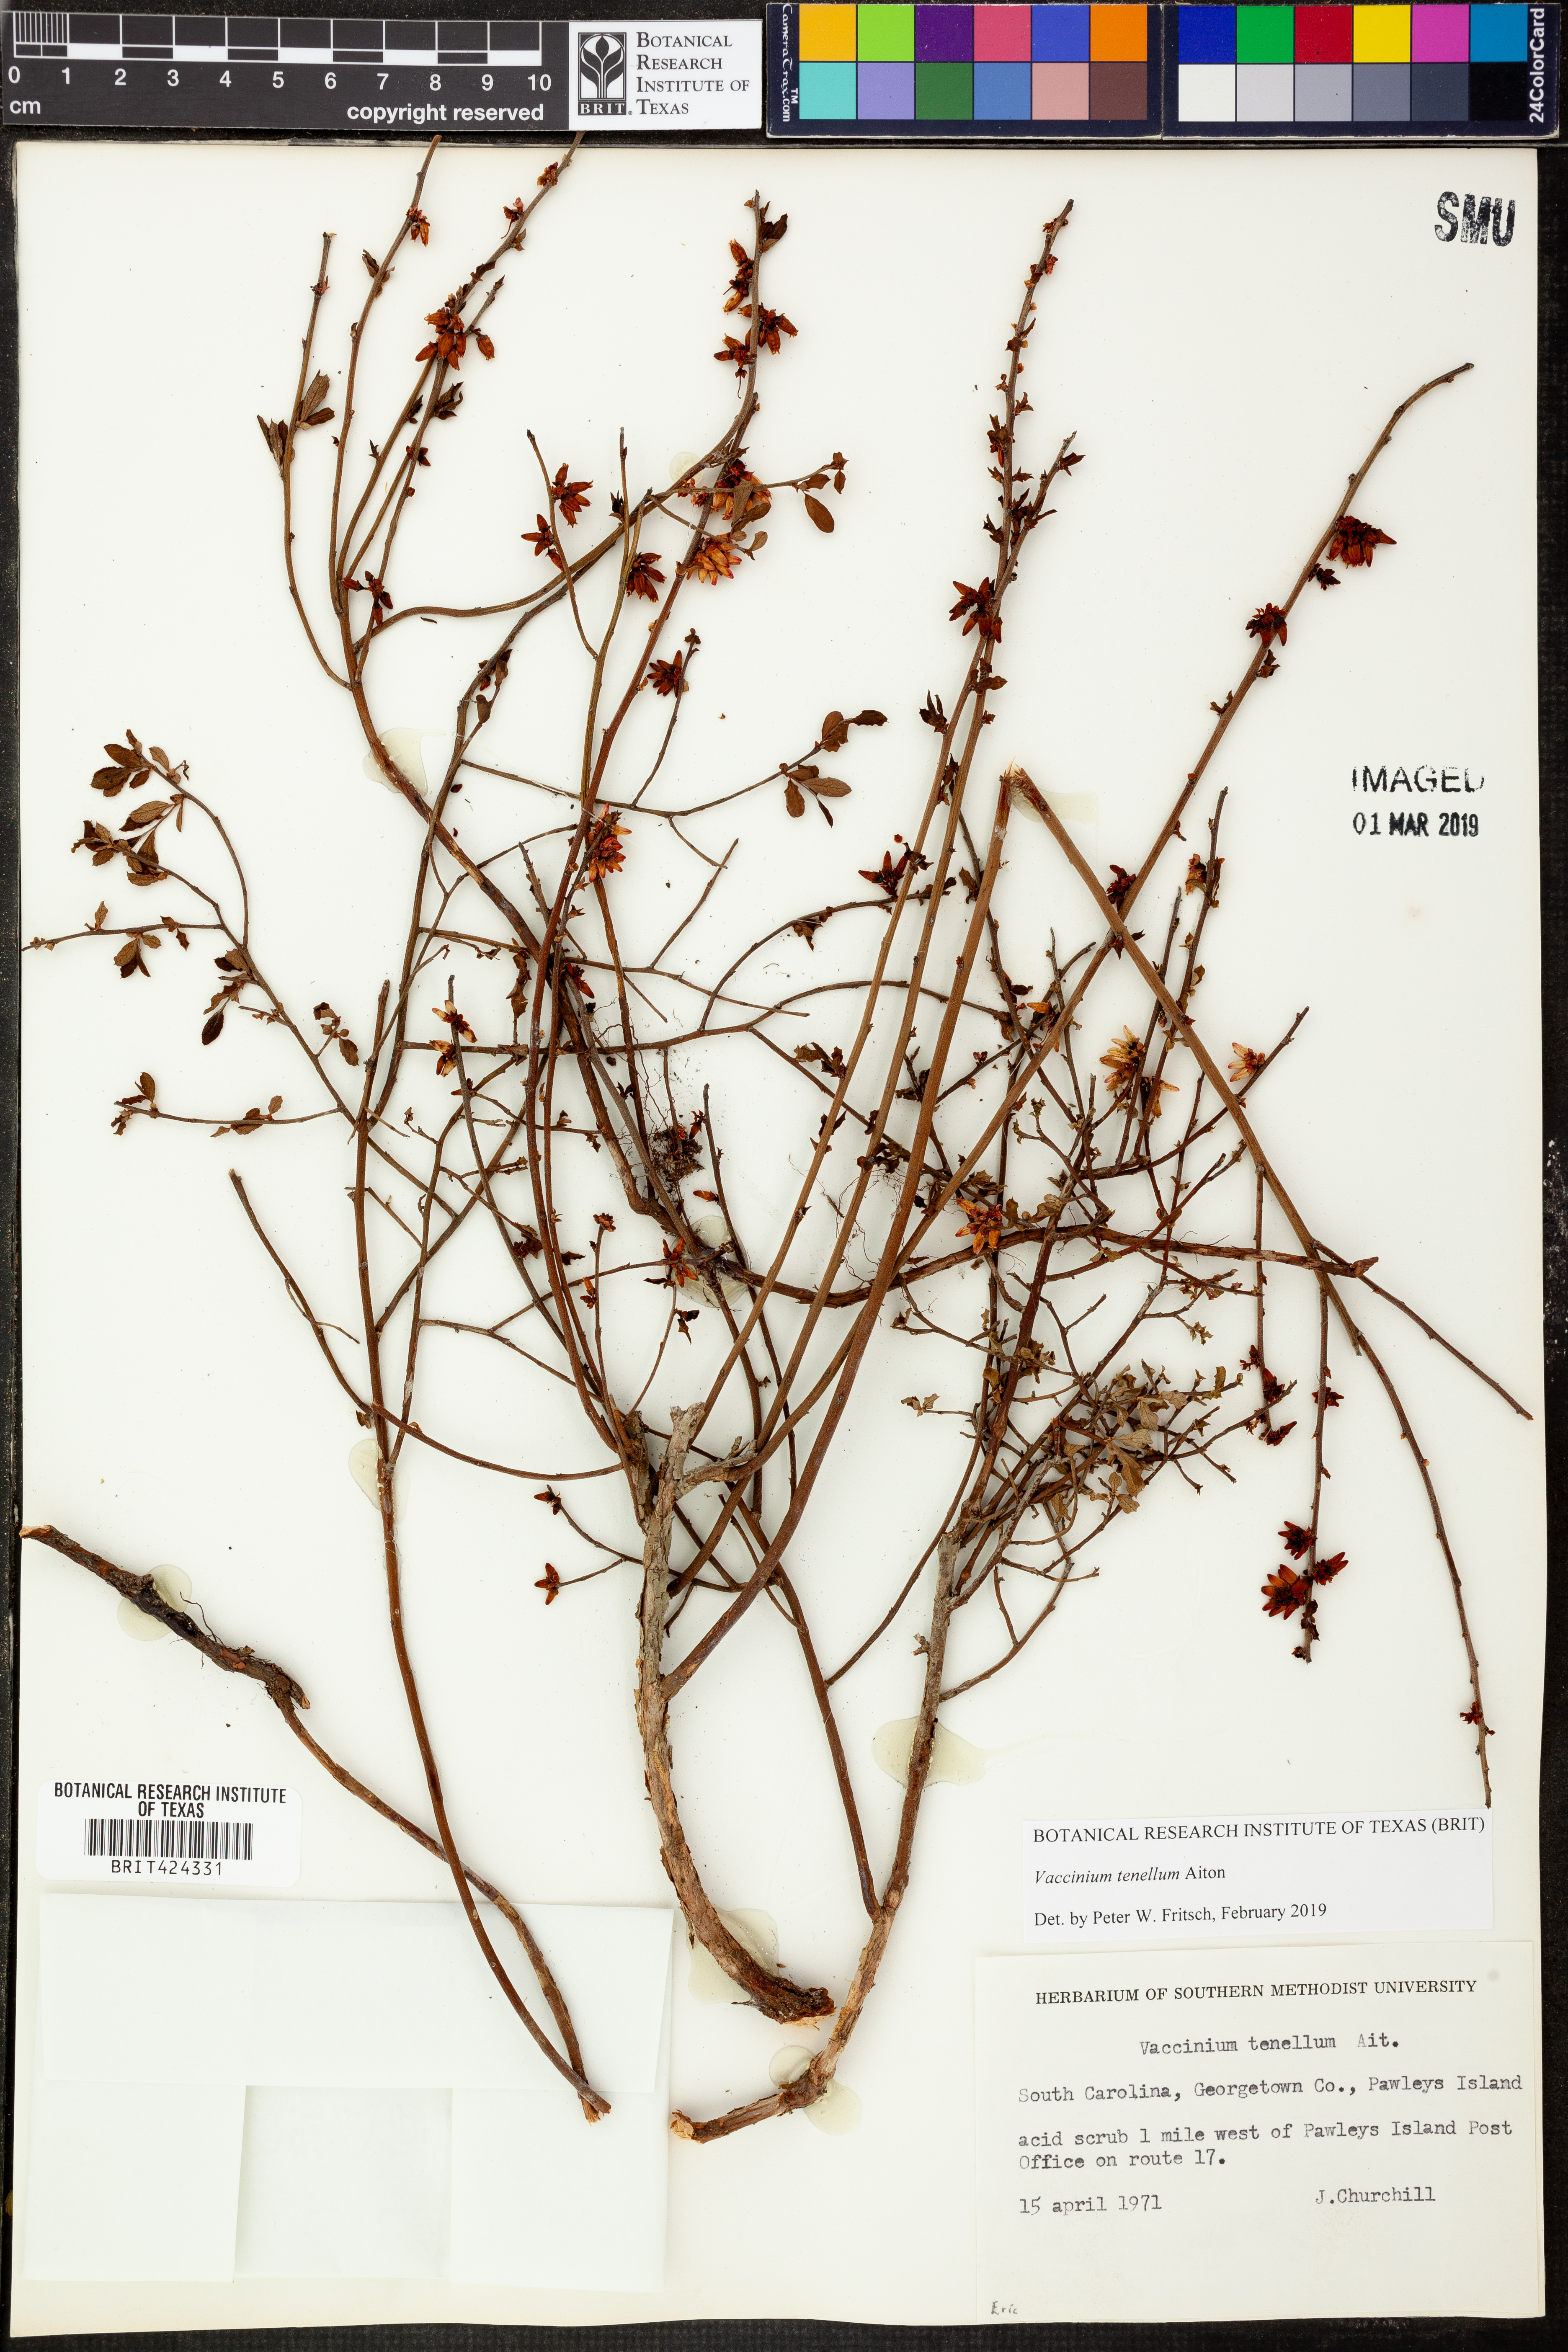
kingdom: Plantae
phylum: Tracheophyta
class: Magnoliopsida
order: Ericales
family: Ericaceae
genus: Vaccinium
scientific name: Vaccinium tenellum
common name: Southern blueberry
